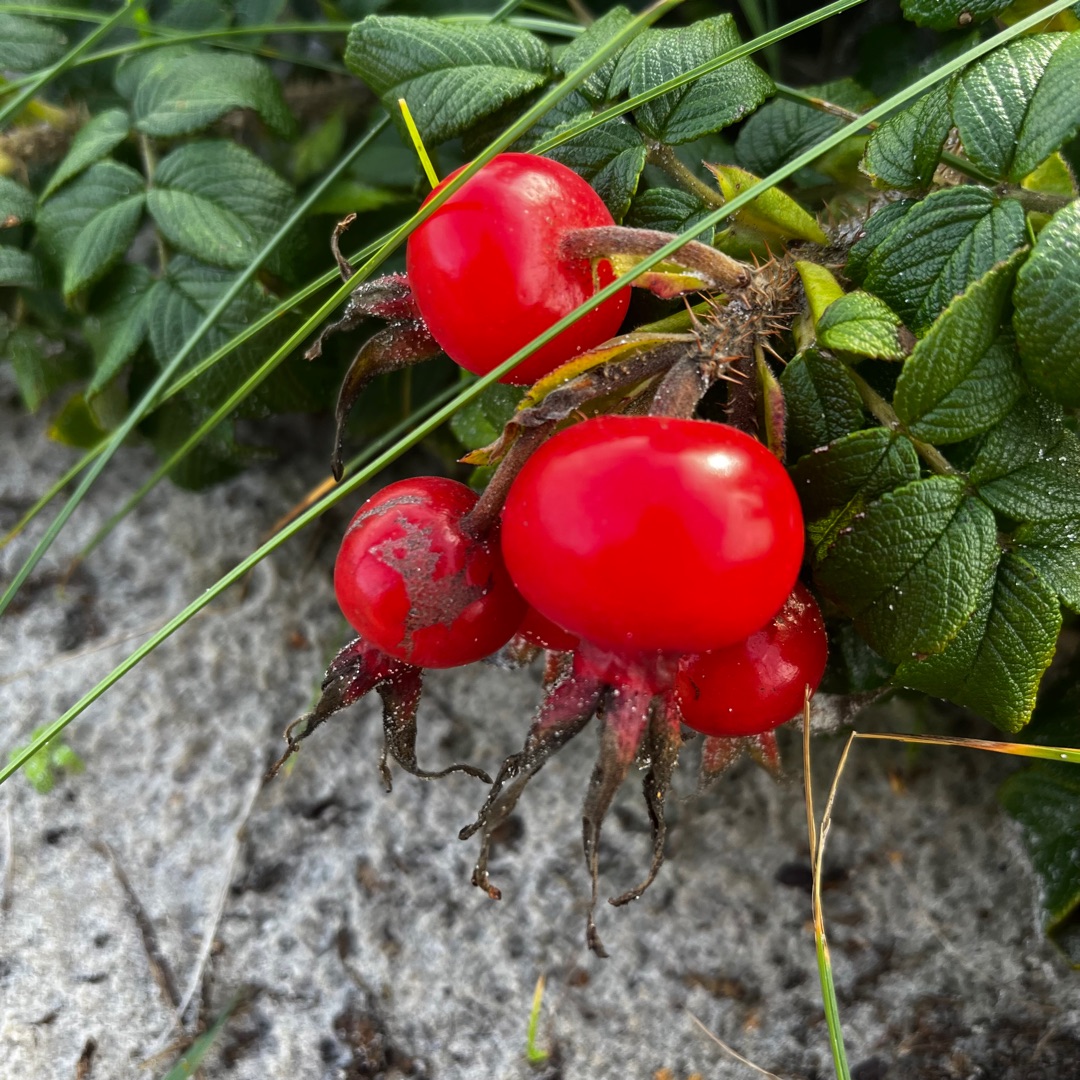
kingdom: Plantae
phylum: Tracheophyta
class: Magnoliopsida
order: Rosales
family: Rosaceae
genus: Rosa
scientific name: Rosa rugosa
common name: Rynket rose
